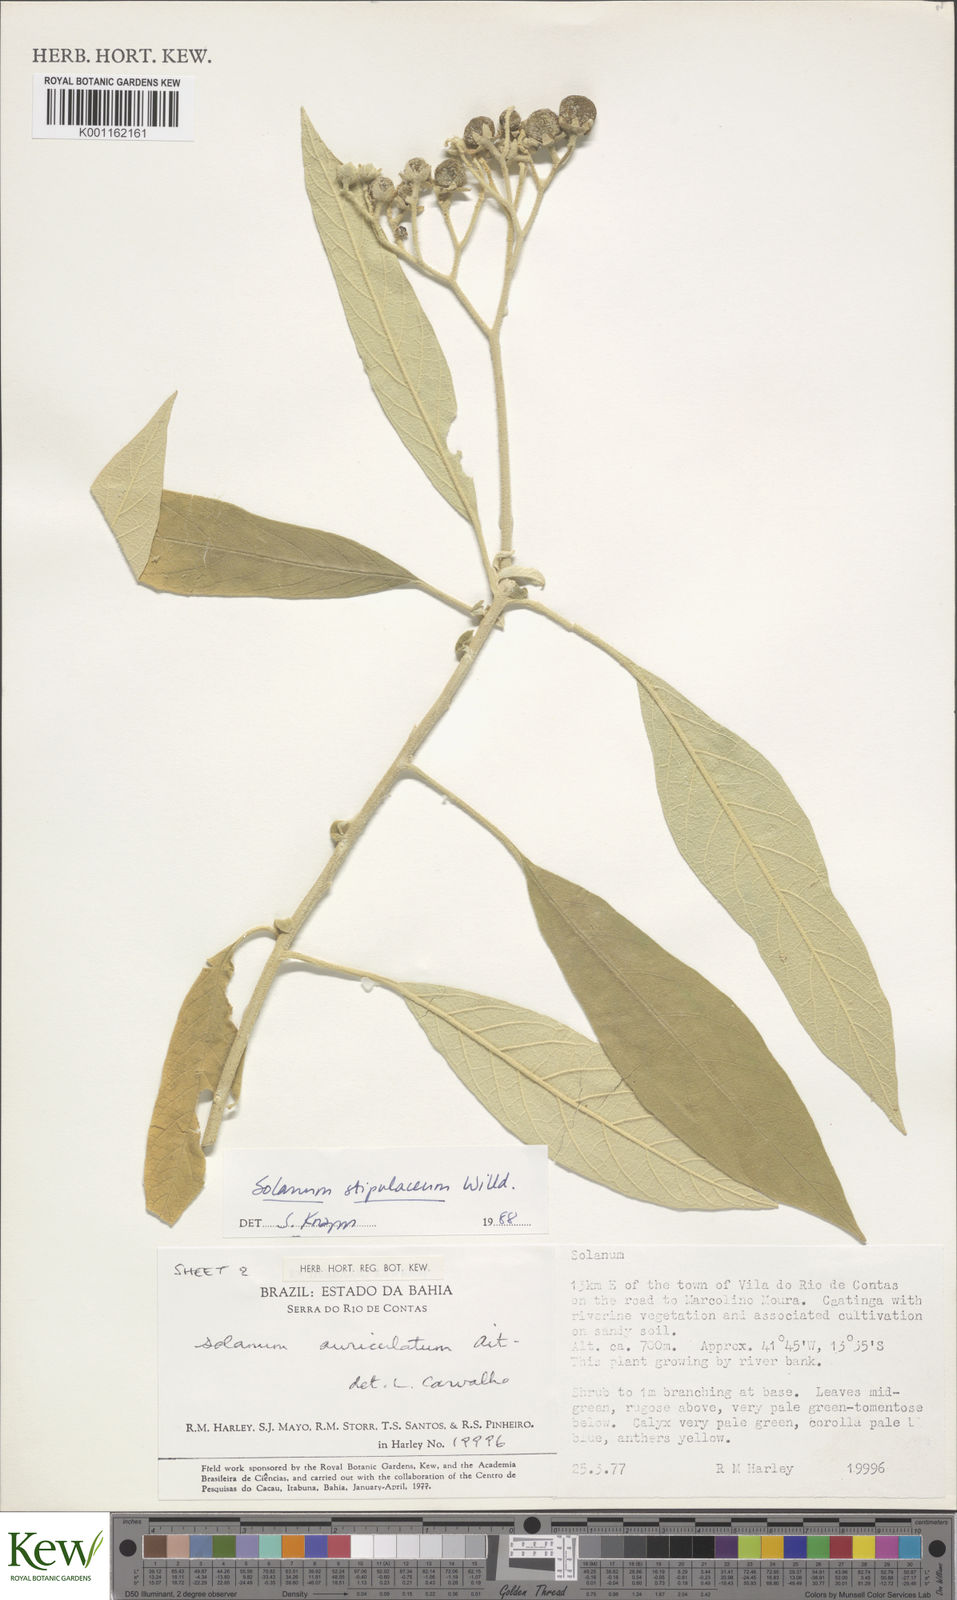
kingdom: Plantae
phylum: Tracheophyta
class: Magnoliopsida
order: Solanales
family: Solanaceae
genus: Solanum
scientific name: Solanum stipulaceum
